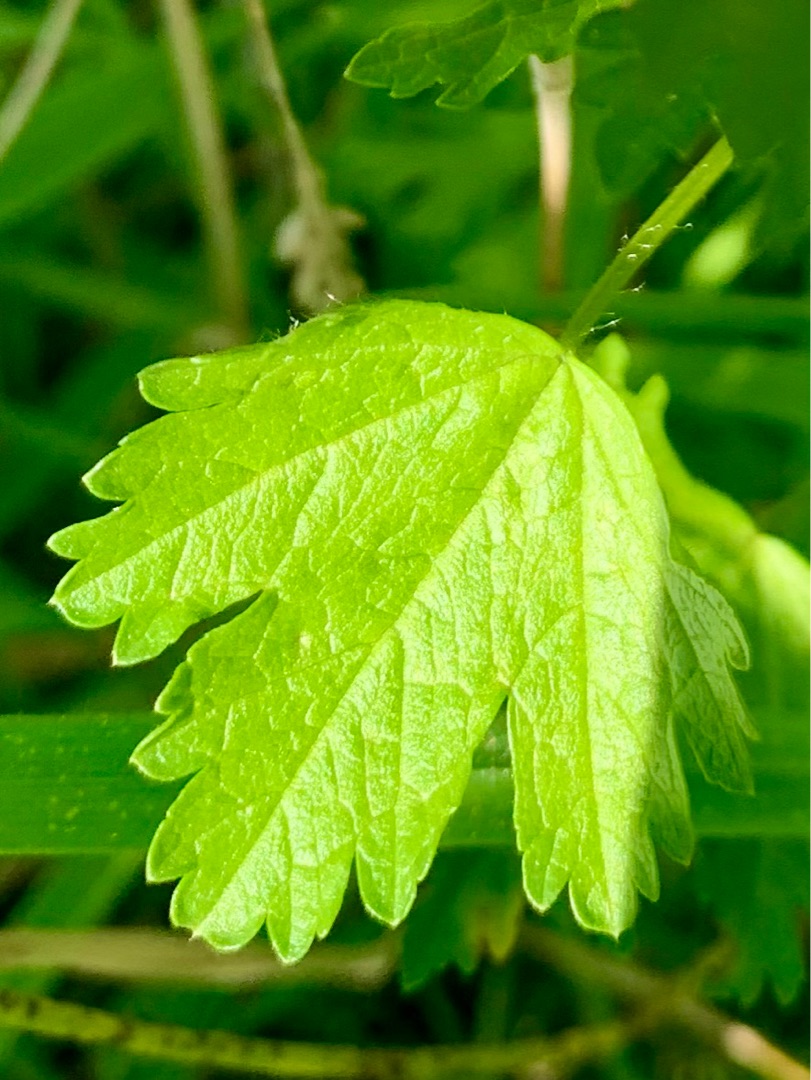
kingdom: Plantae
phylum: Tracheophyta
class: Magnoliopsida
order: Malvales
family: Malvaceae
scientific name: Malvaceae
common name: Katostfamilien
